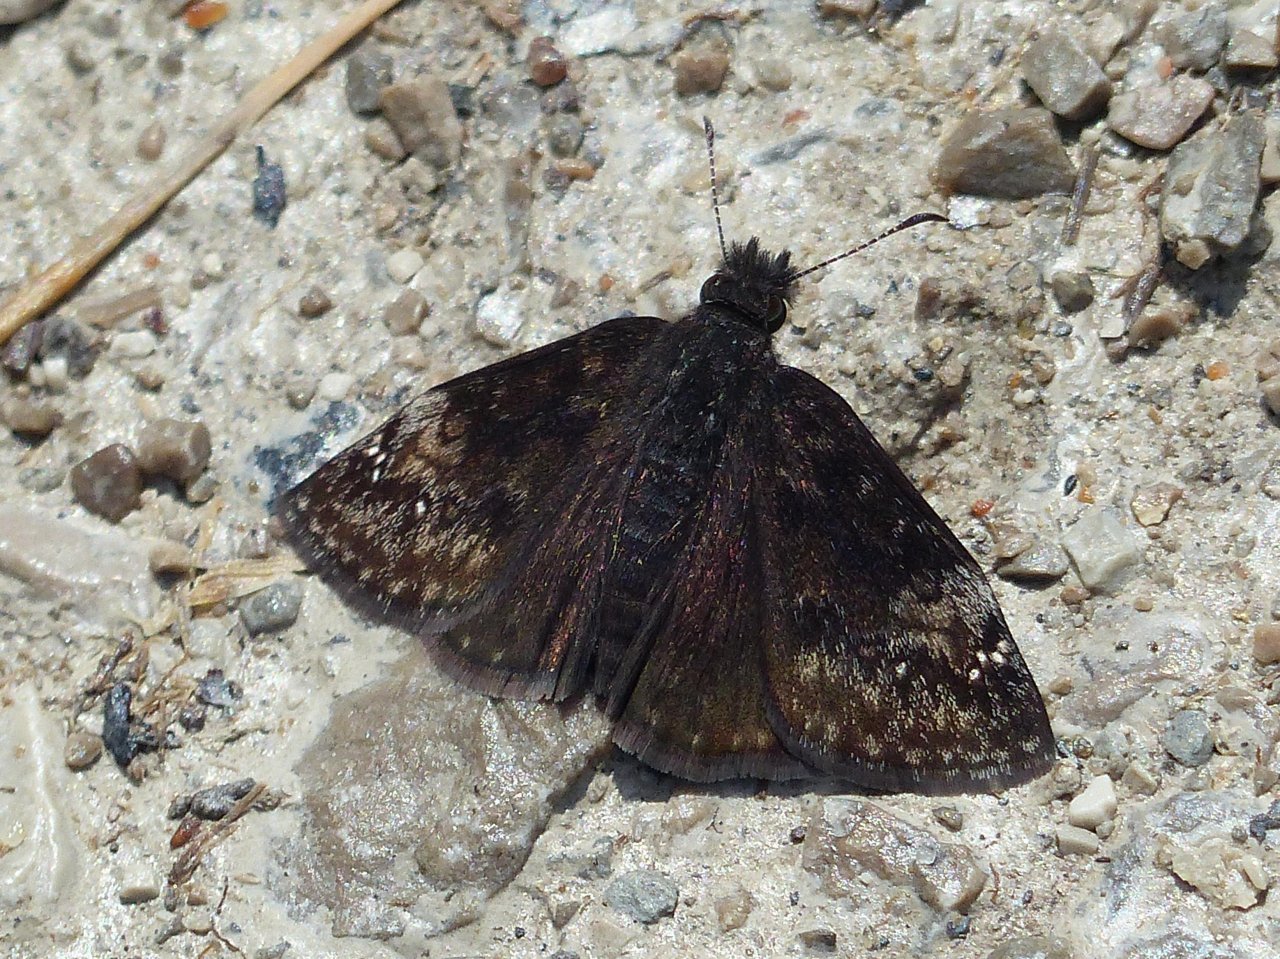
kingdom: Animalia
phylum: Arthropoda
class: Insecta
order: Lepidoptera
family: Hesperiidae
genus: Gesta
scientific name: Gesta
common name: Columbine Duskywing
